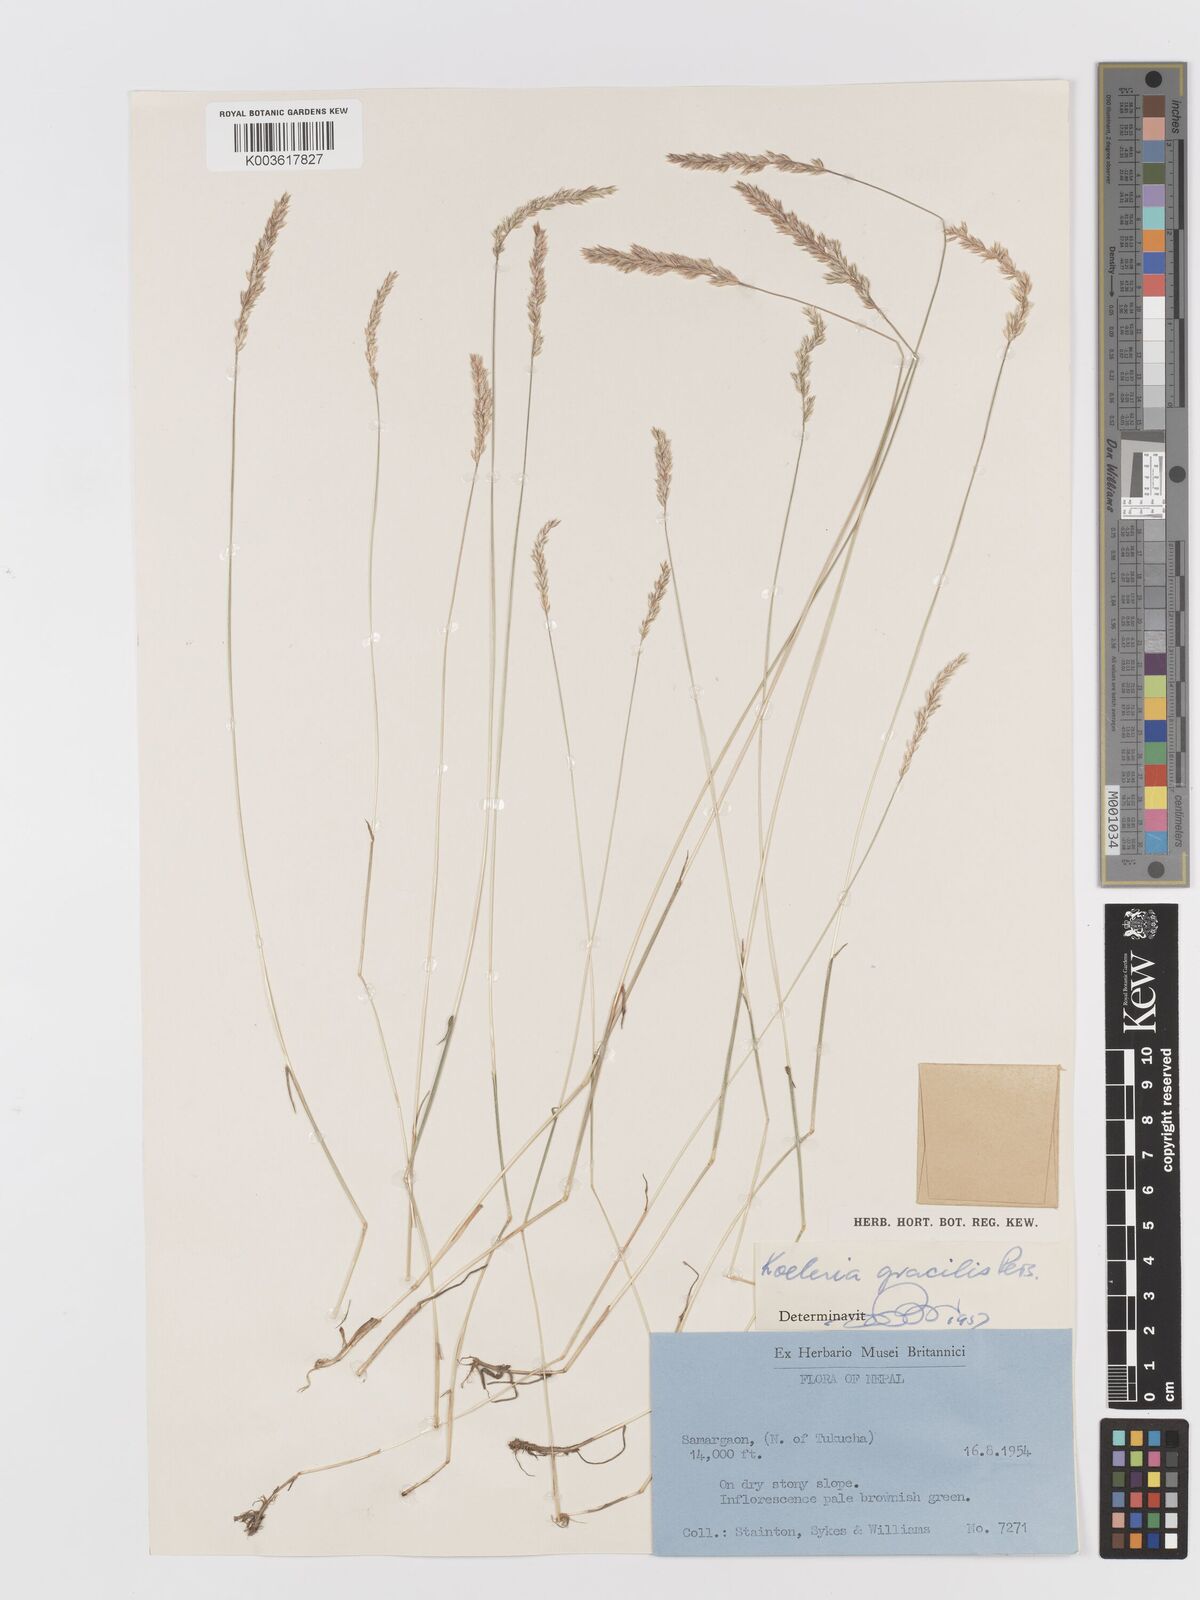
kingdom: Plantae
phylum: Tracheophyta
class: Liliopsida
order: Poales
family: Poaceae
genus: Koeleria
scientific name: Koeleria macrantha
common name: Crested hair-grass
